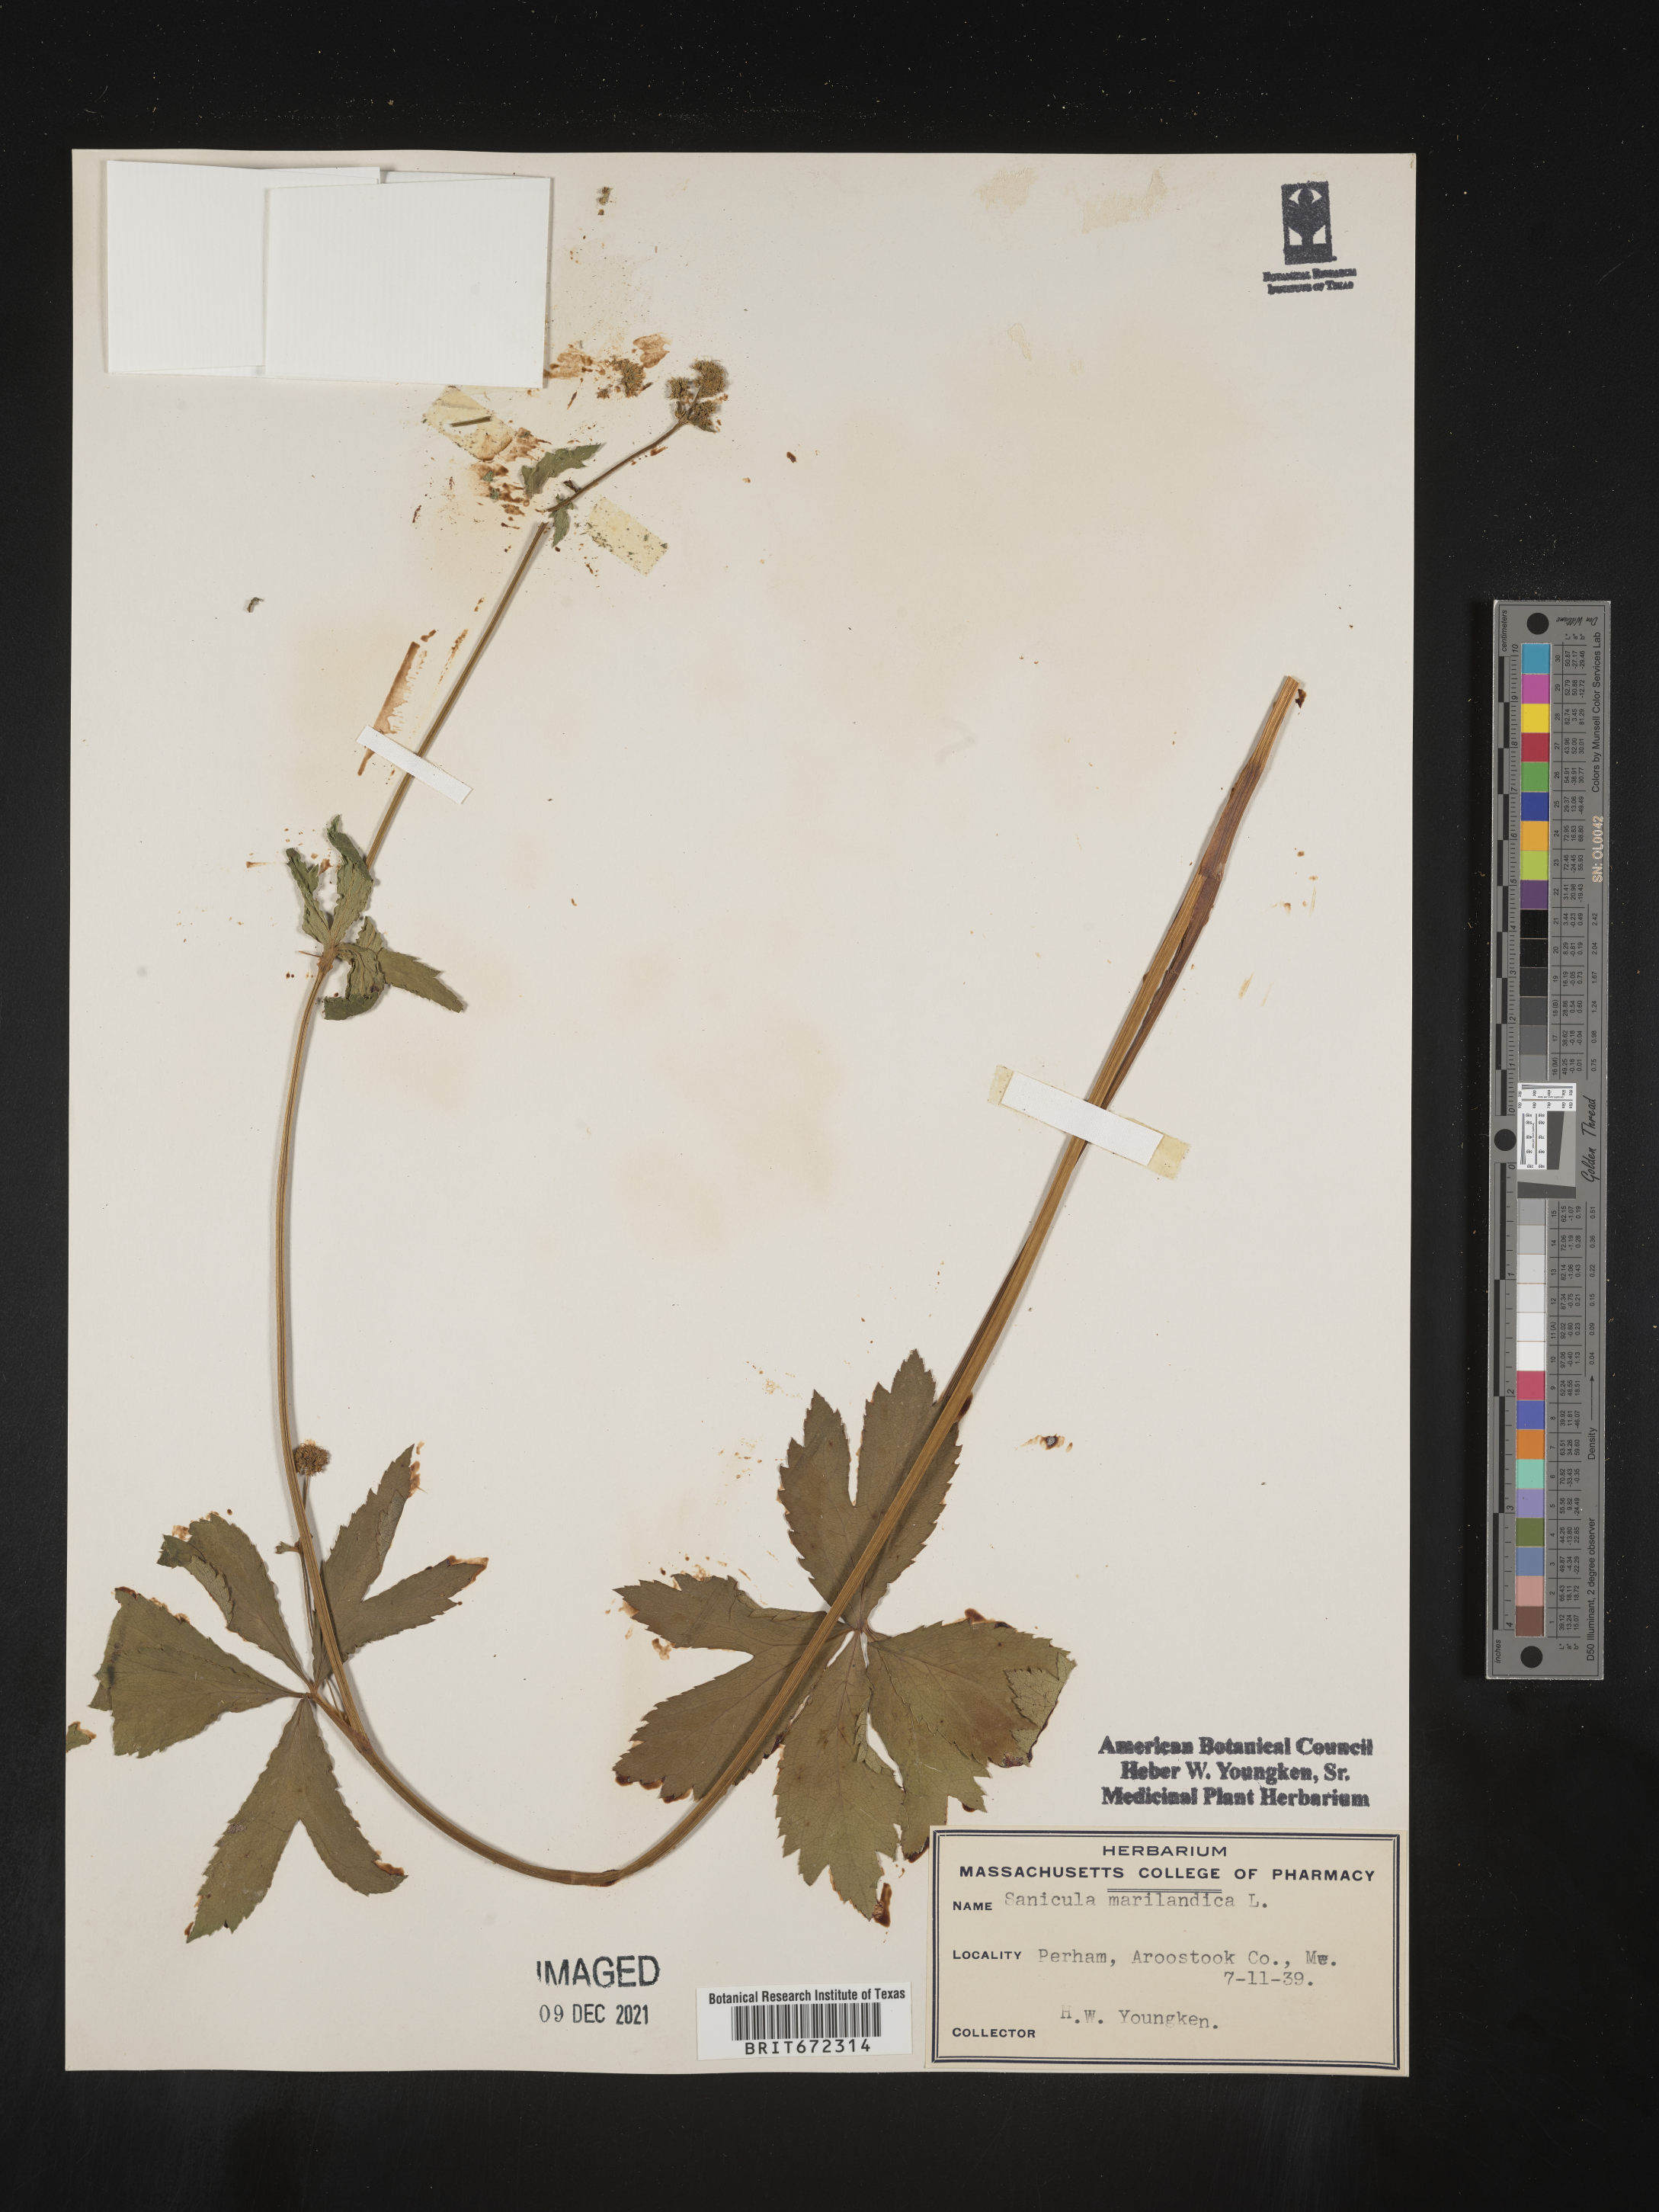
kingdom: Plantae
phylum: Tracheophyta
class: Magnoliopsida
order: Apiales
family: Apiaceae
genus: Sanicula
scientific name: Sanicula marilandica
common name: Black snakeroot
